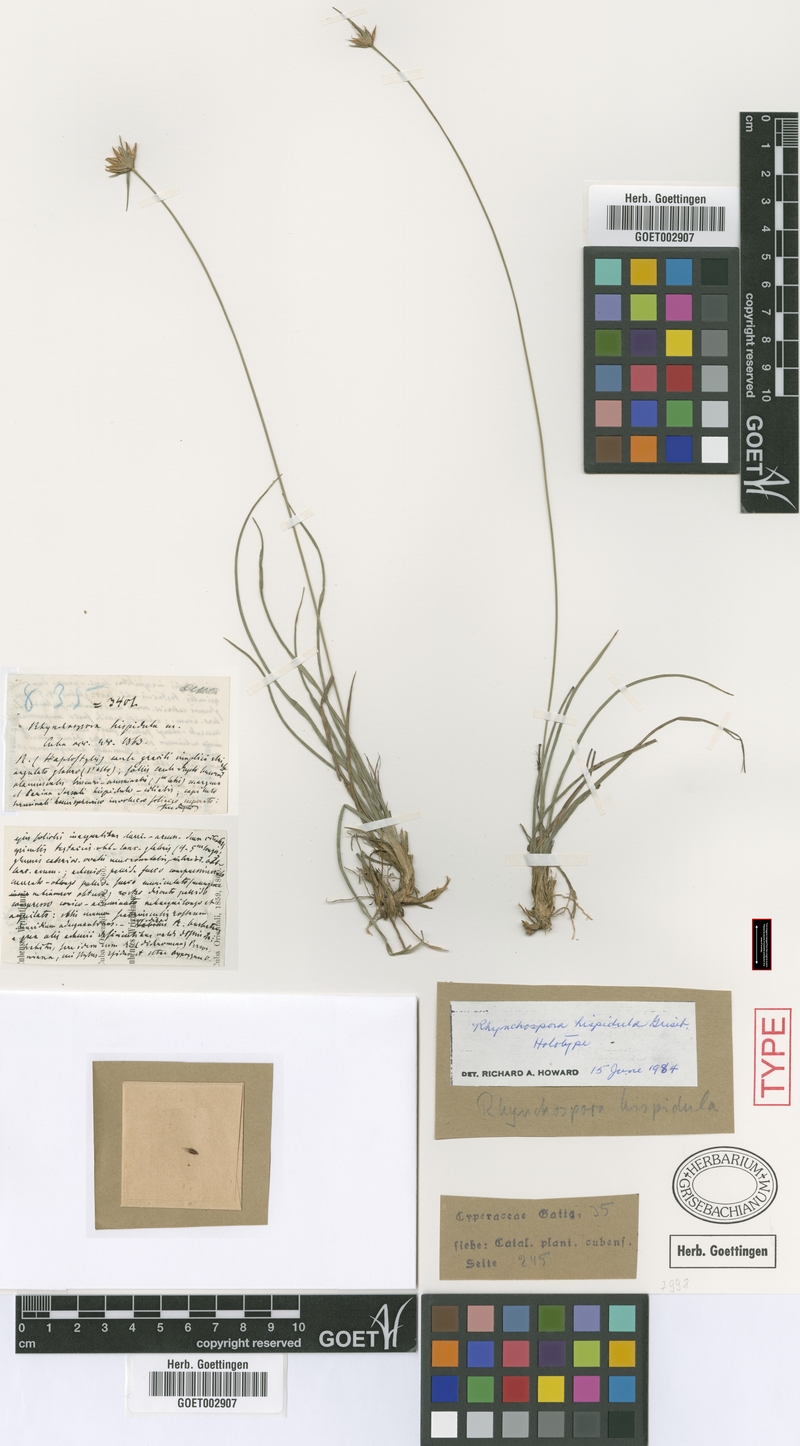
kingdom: Plantae
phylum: Tracheophyta
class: Liliopsida
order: Poales
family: Cyperaceae
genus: Rhynchospora
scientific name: Rhynchospora hispidula
